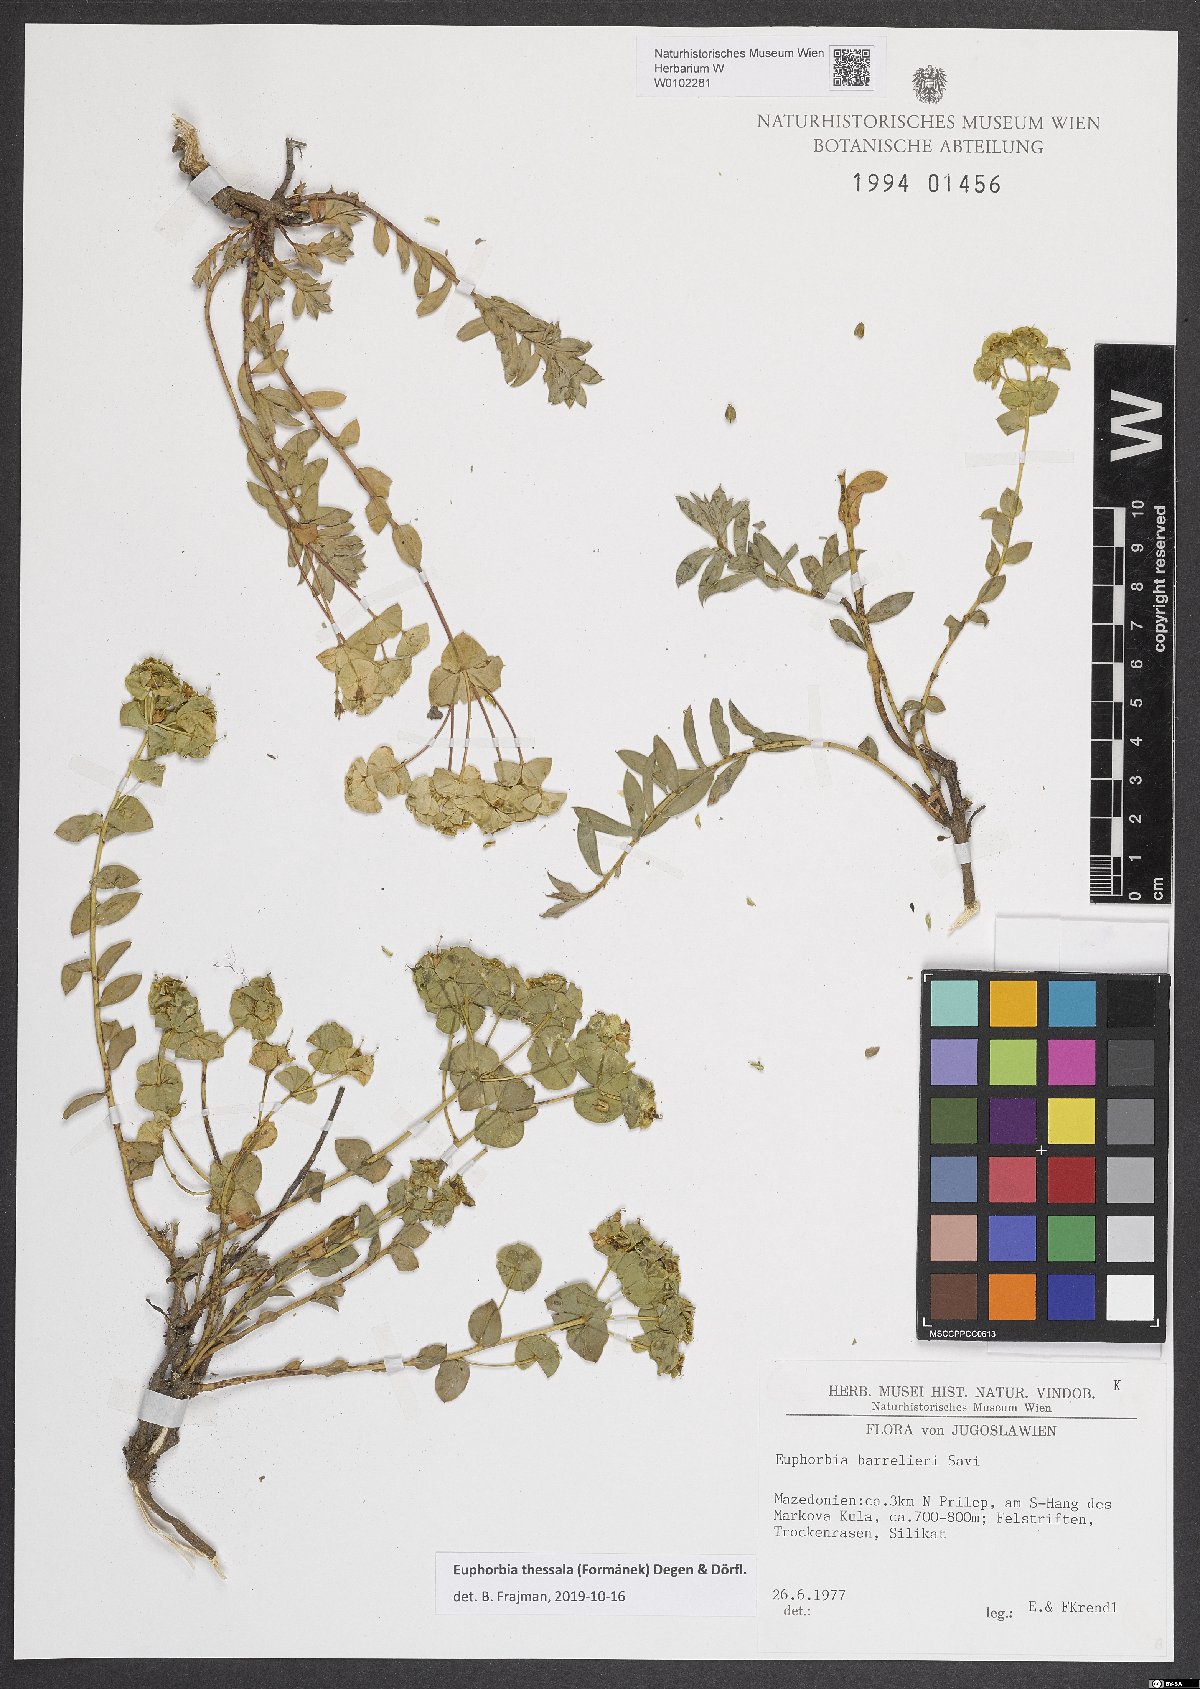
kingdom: Plantae
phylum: Tracheophyta
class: Magnoliopsida
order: Malpighiales
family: Euphorbiaceae
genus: Euphorbia
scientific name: Euphorbia barrelieri
